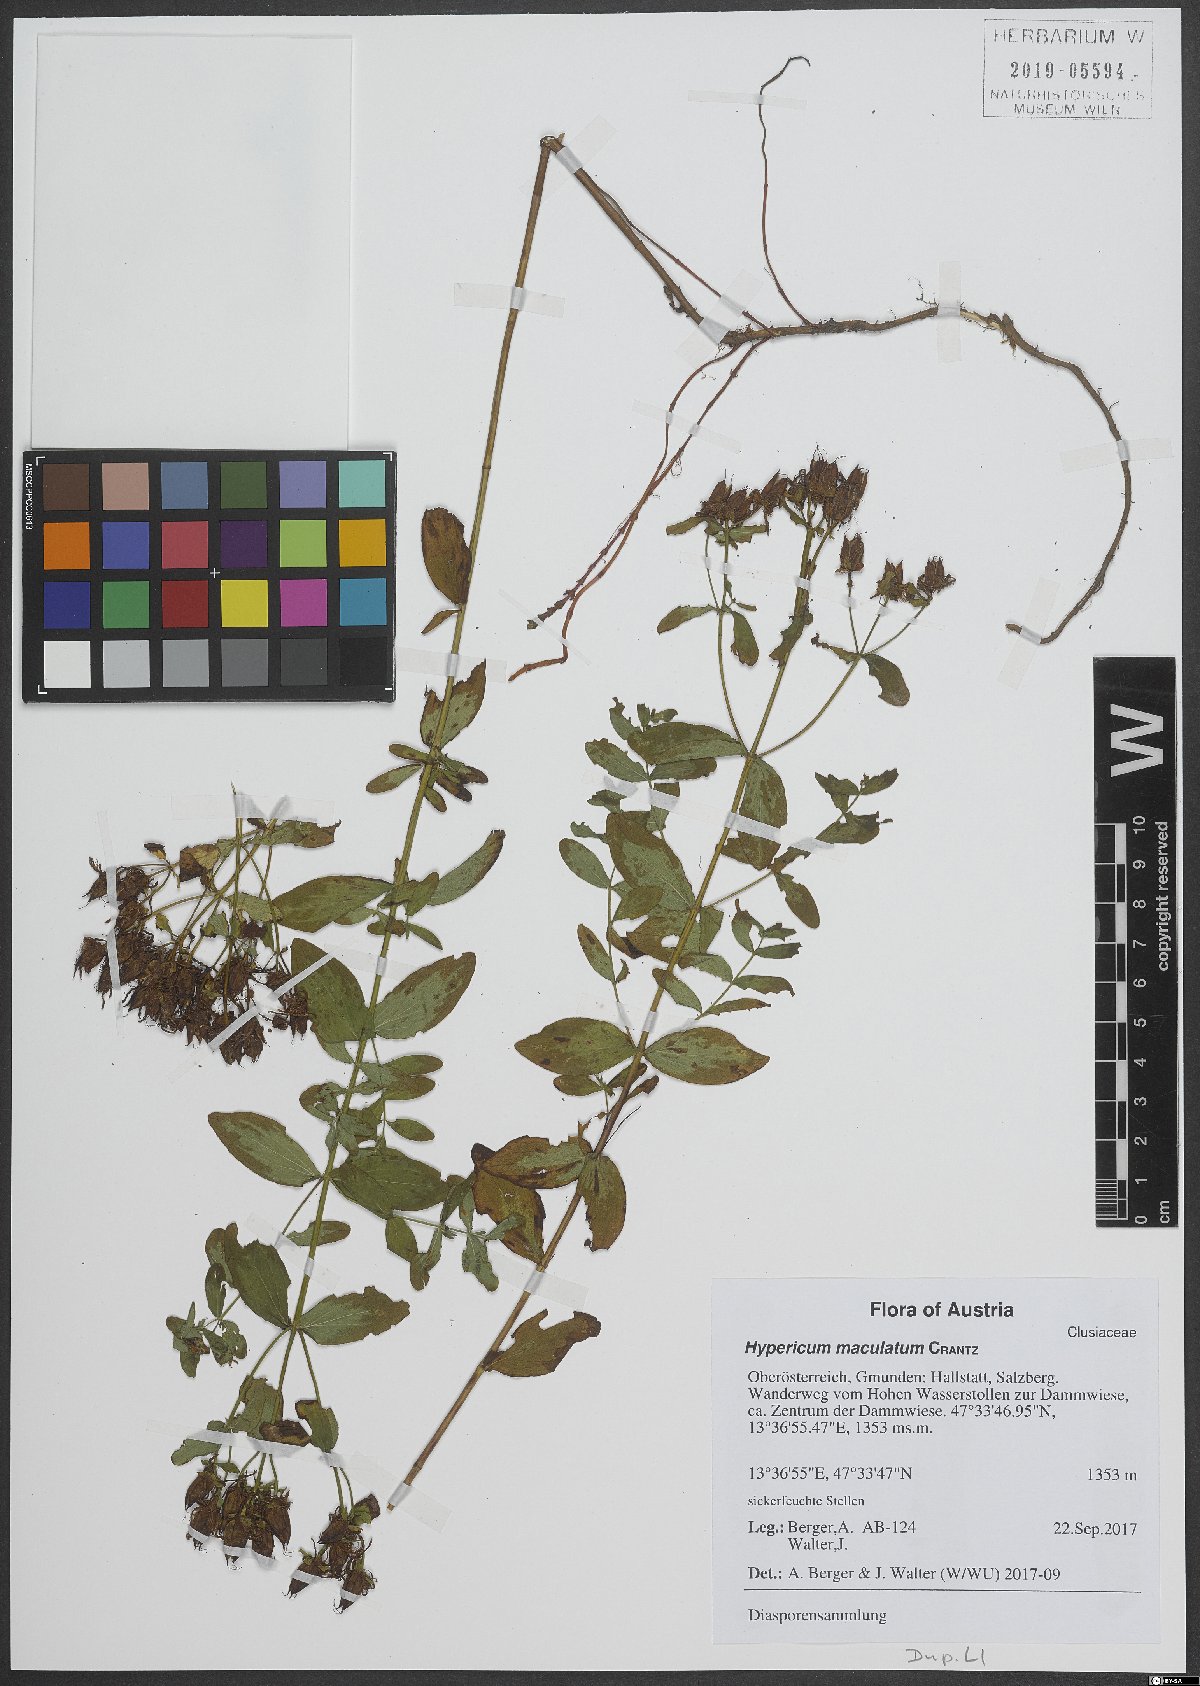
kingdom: Plantae
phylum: Tracheophyta
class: Magnoliopsida
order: Malpighiales
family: Hypericaceae
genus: Hypericum
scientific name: Hypericum maculatum
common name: Imperforate st. john's-wort
